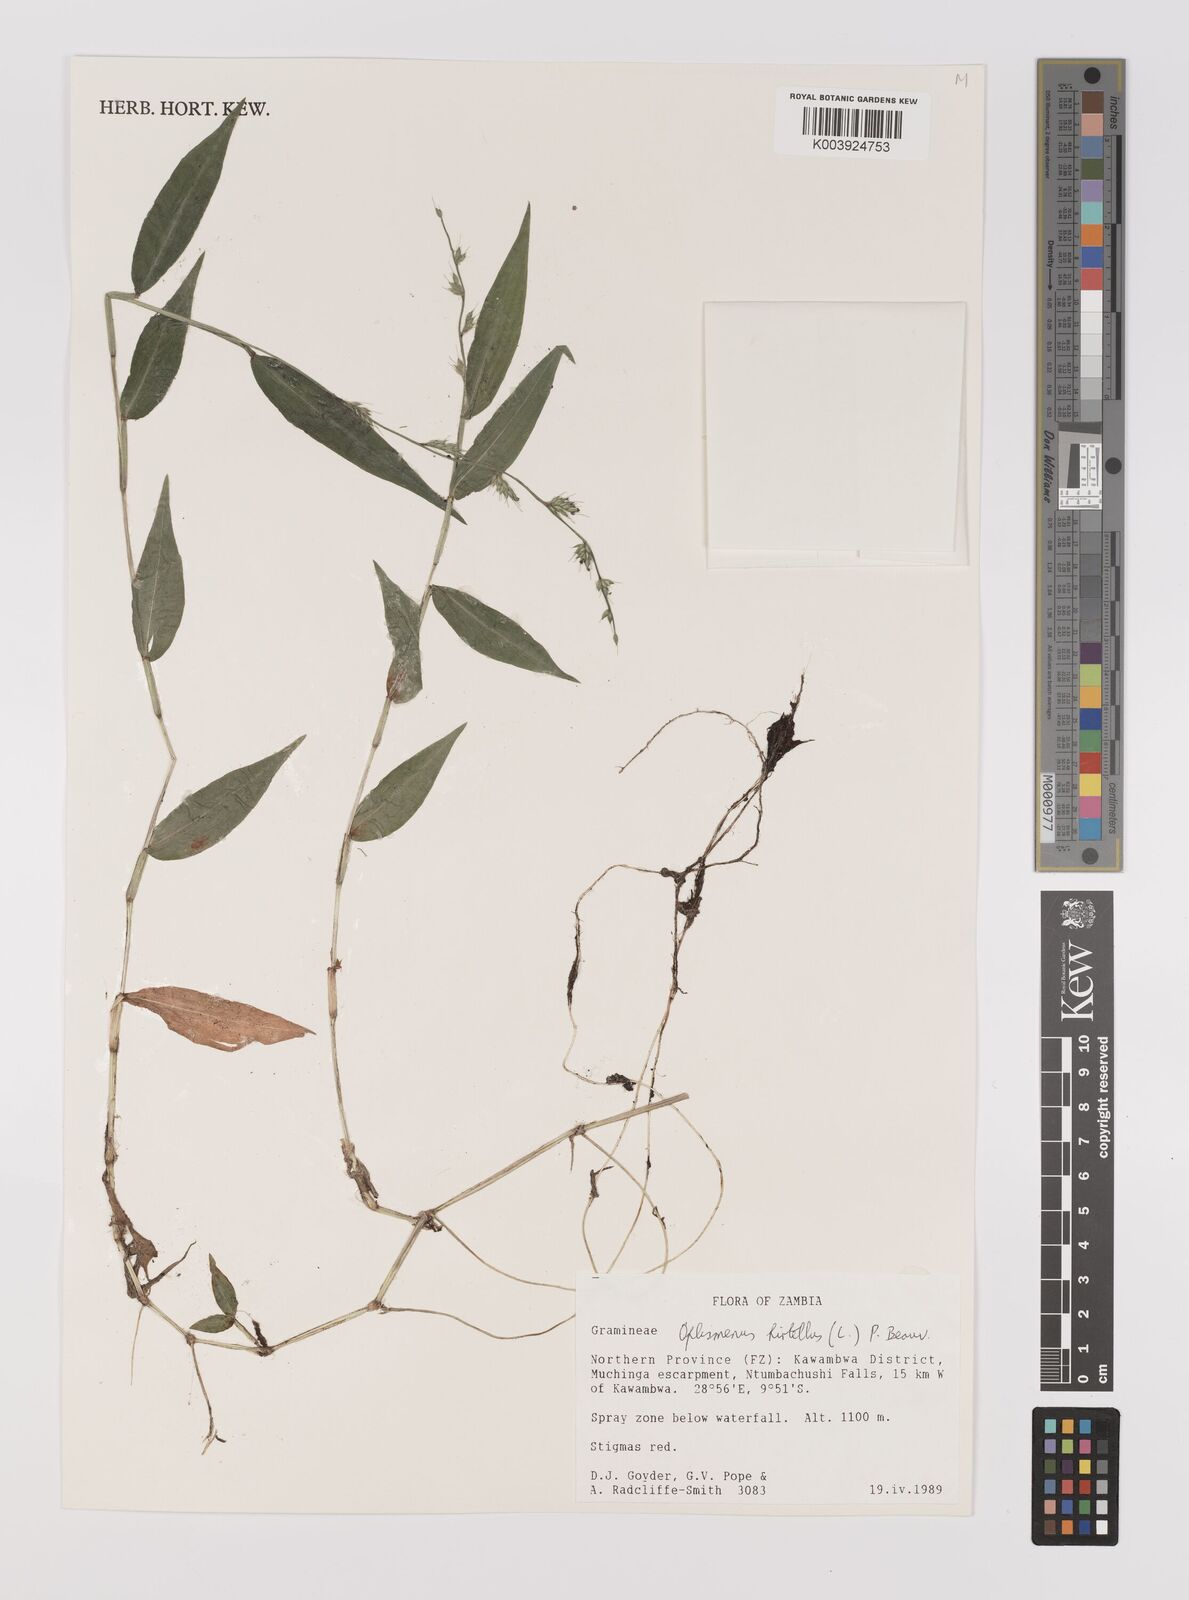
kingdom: Plantae
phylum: Tracheophyta
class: Liliopsida
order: Poales
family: Poaceae
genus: Oplismenus
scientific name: Oplismenus hirtellus
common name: Basketgrass
